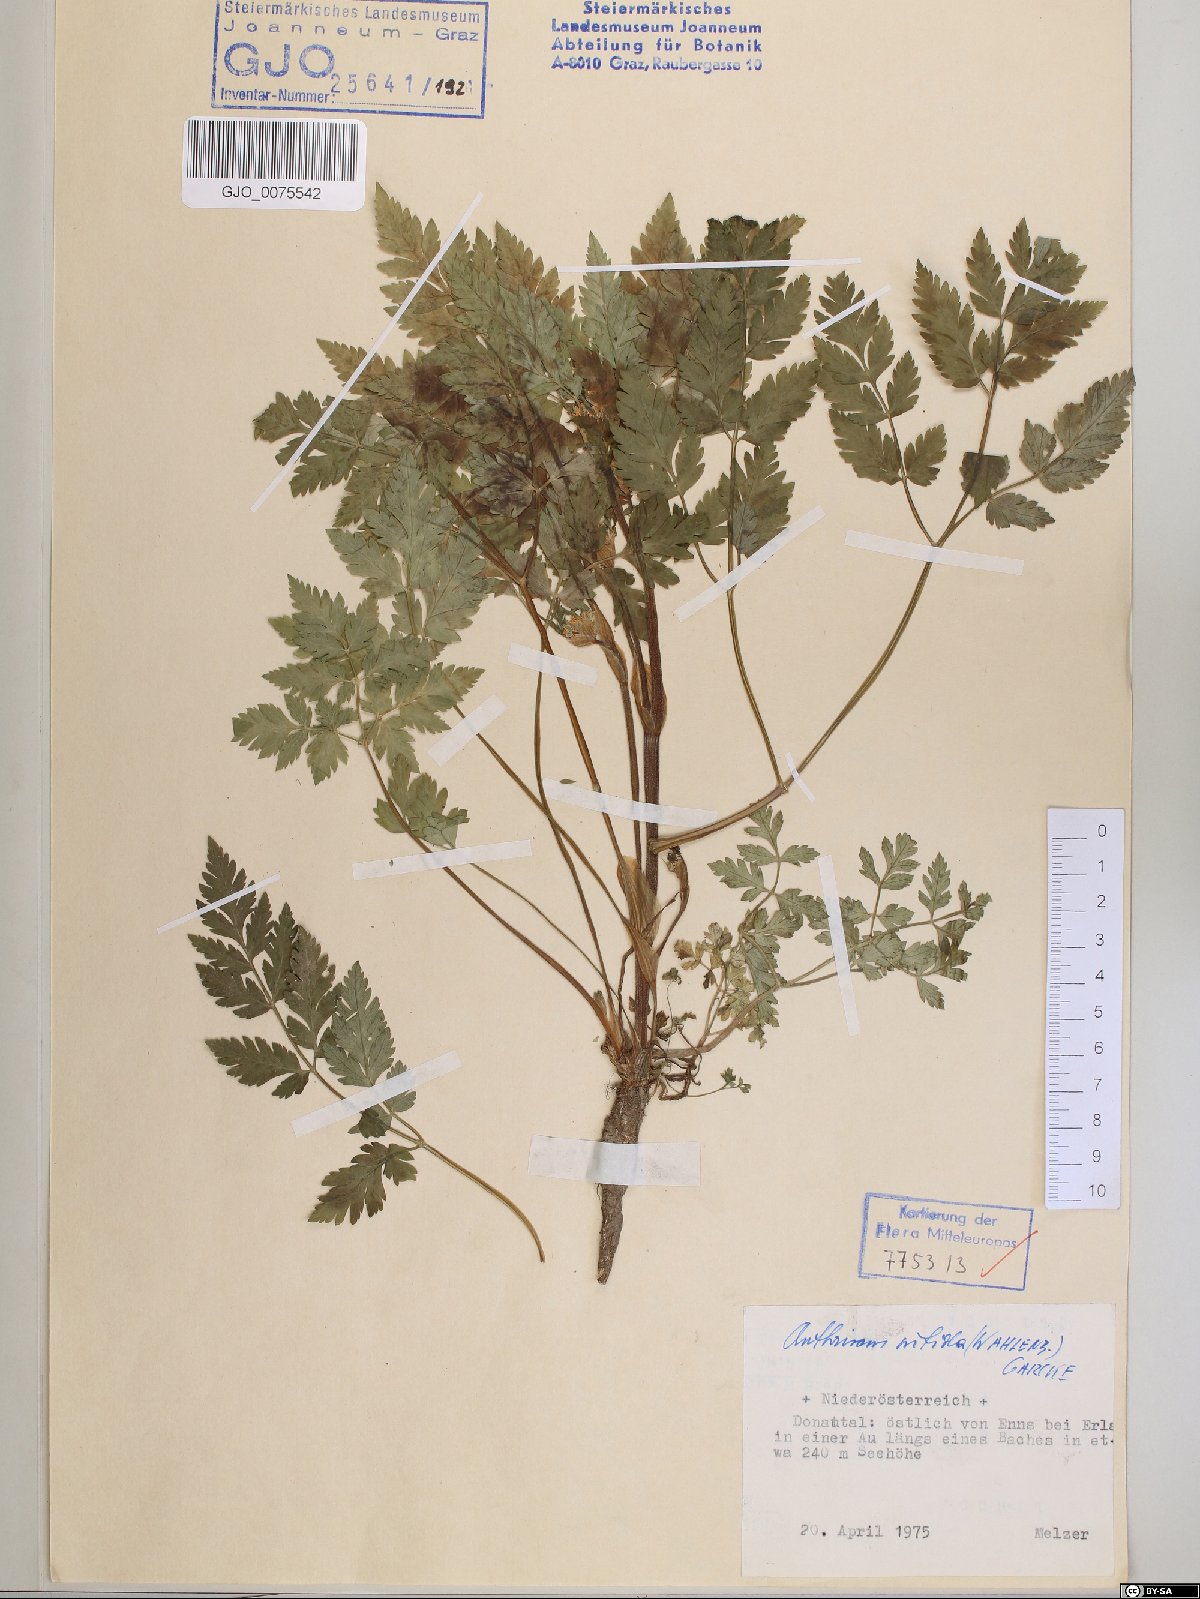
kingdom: Plantae
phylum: Tracheophyta
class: Magnoliopsida
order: Apiales
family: Apiaceae
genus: Anthriscus
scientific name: Anthriscus nitida
